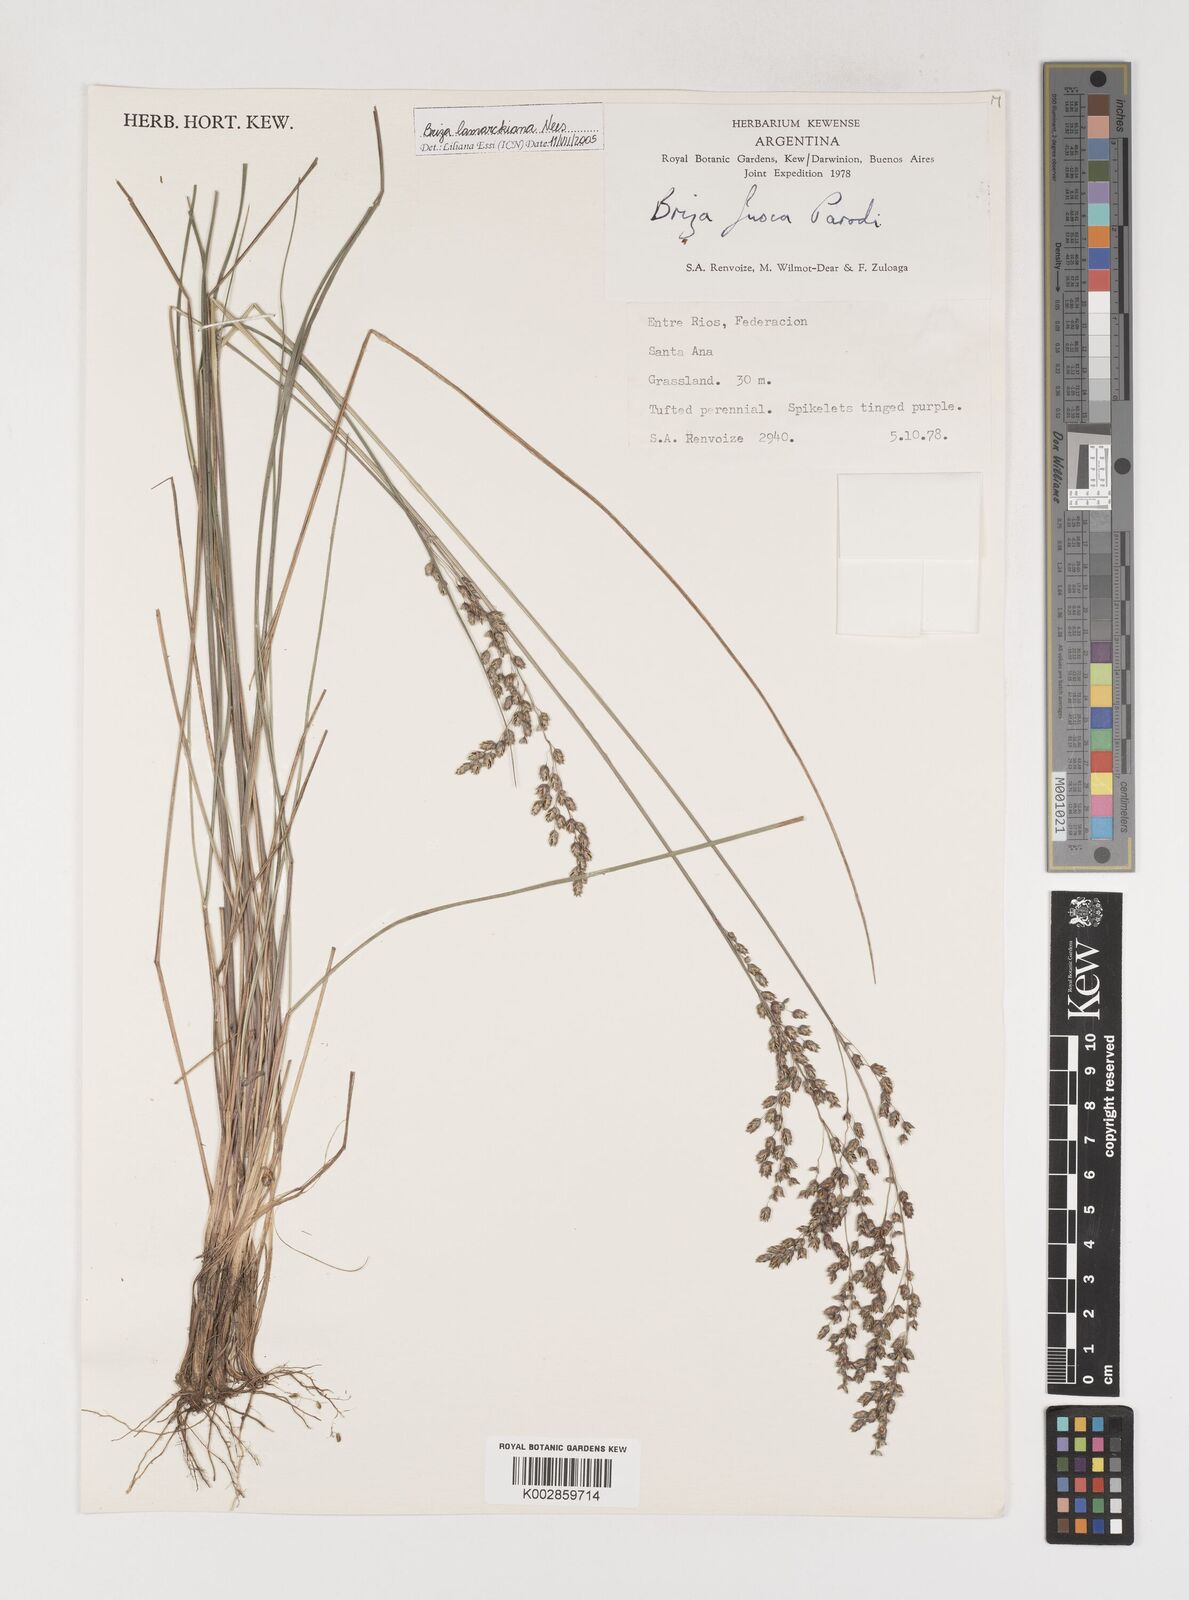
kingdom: Plantae
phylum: Tracheophyta
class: Liliopsida
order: Poales
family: Poaceae
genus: Chascolytrum
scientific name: Chascolytrum lamarckianum
